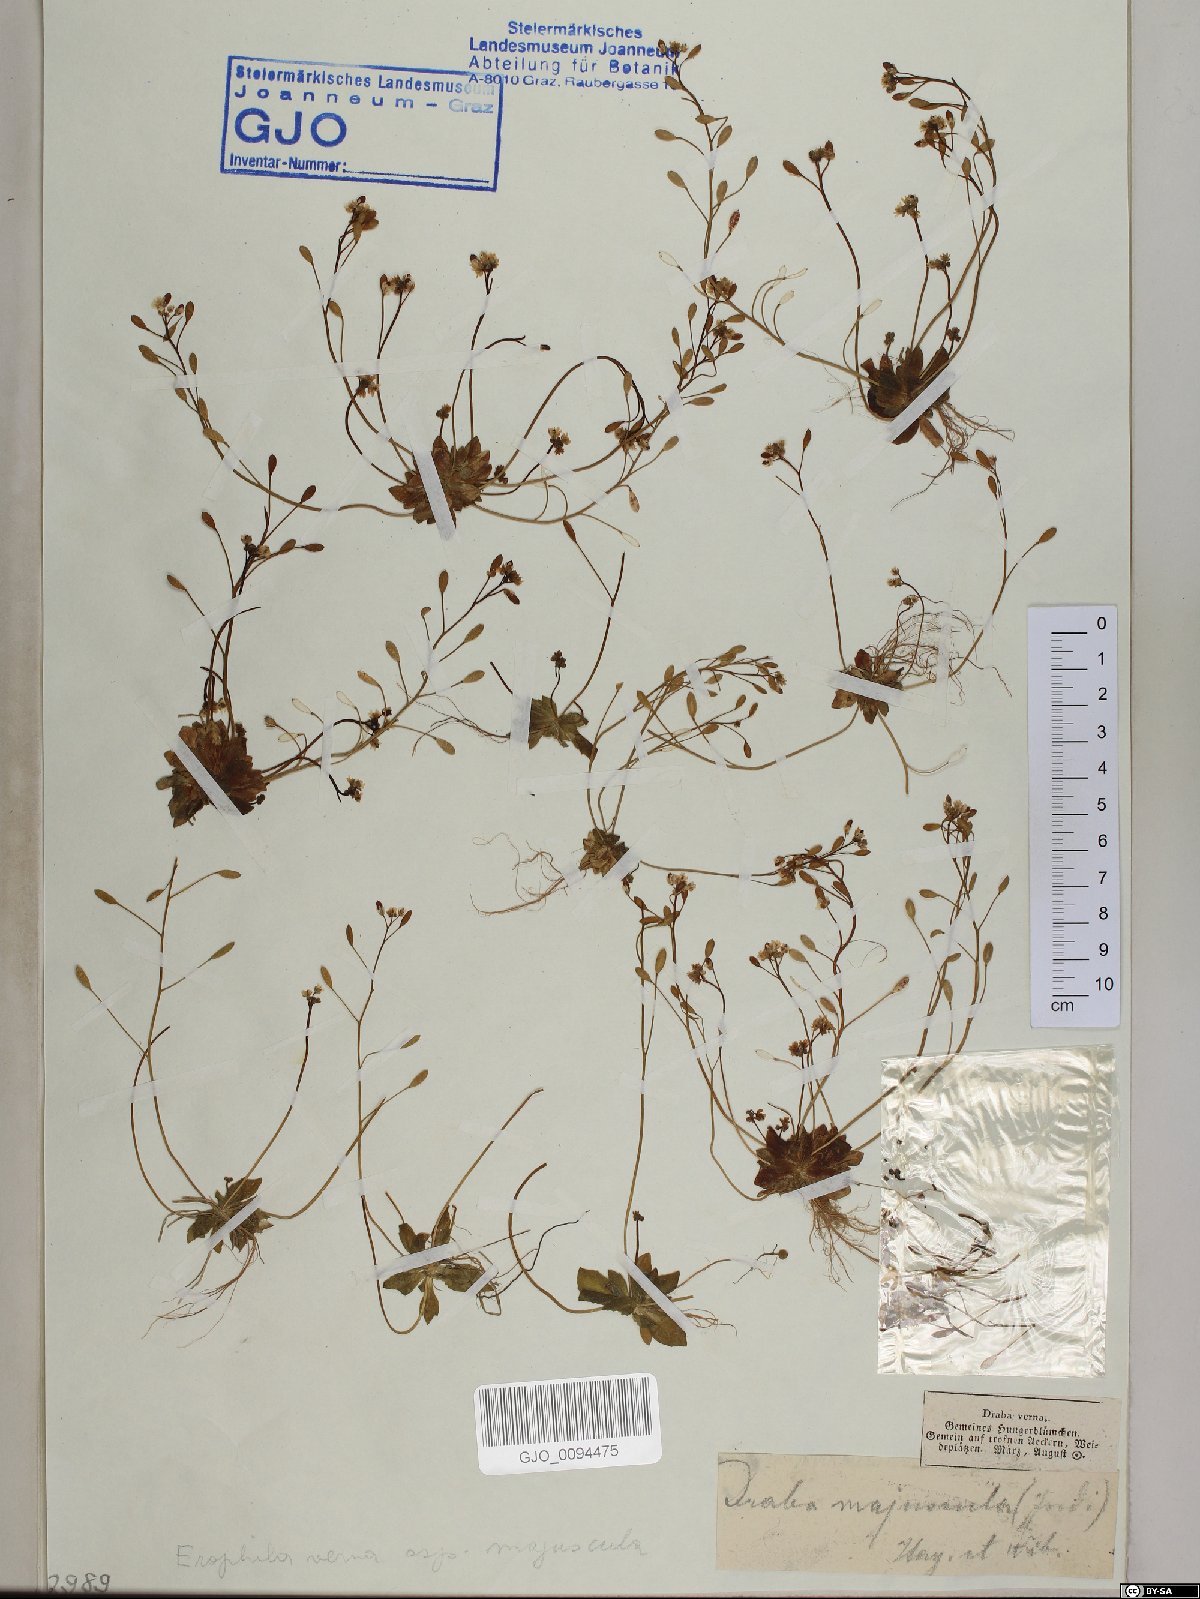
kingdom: Plantae
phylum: Tracheophyta
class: Magnoliopsida
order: Brassicales
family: Brassicaceae
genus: Draba
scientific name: Draba verna
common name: Spring draba
